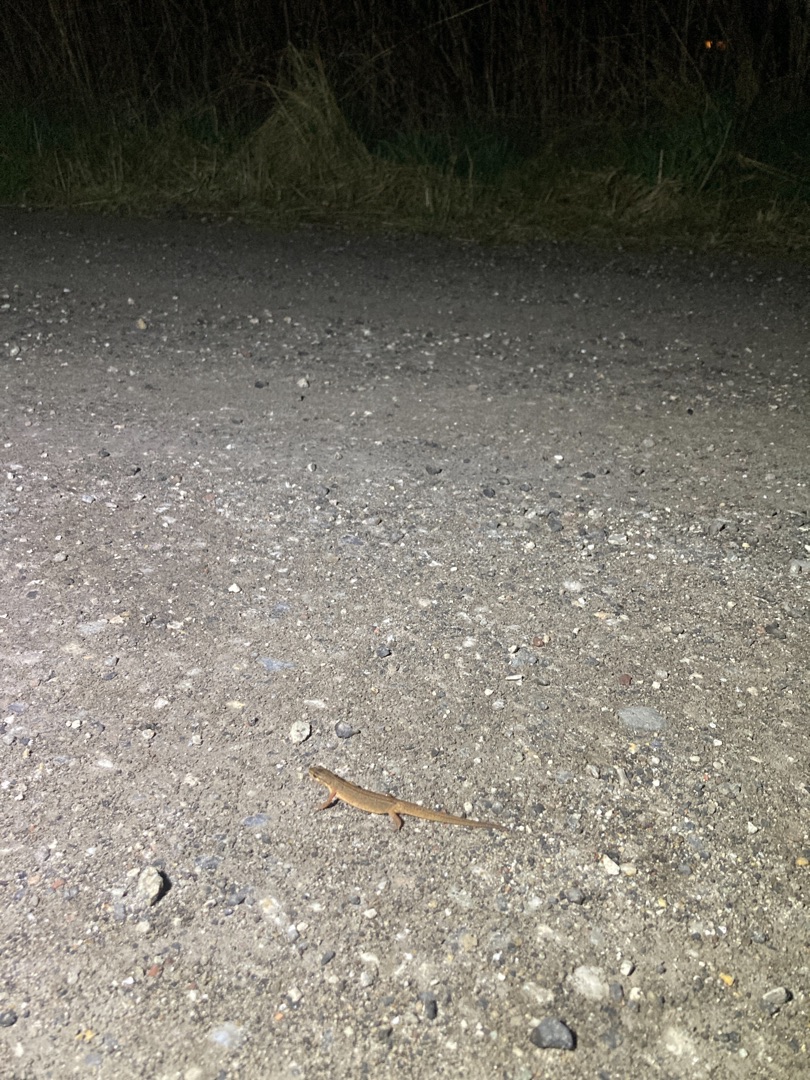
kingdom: Animalia
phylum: Chordata
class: Amphibia
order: Caudata
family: Salamandridae
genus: Lissotriton
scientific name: Lissotriton vulgaris
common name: Lille vandsalamander
